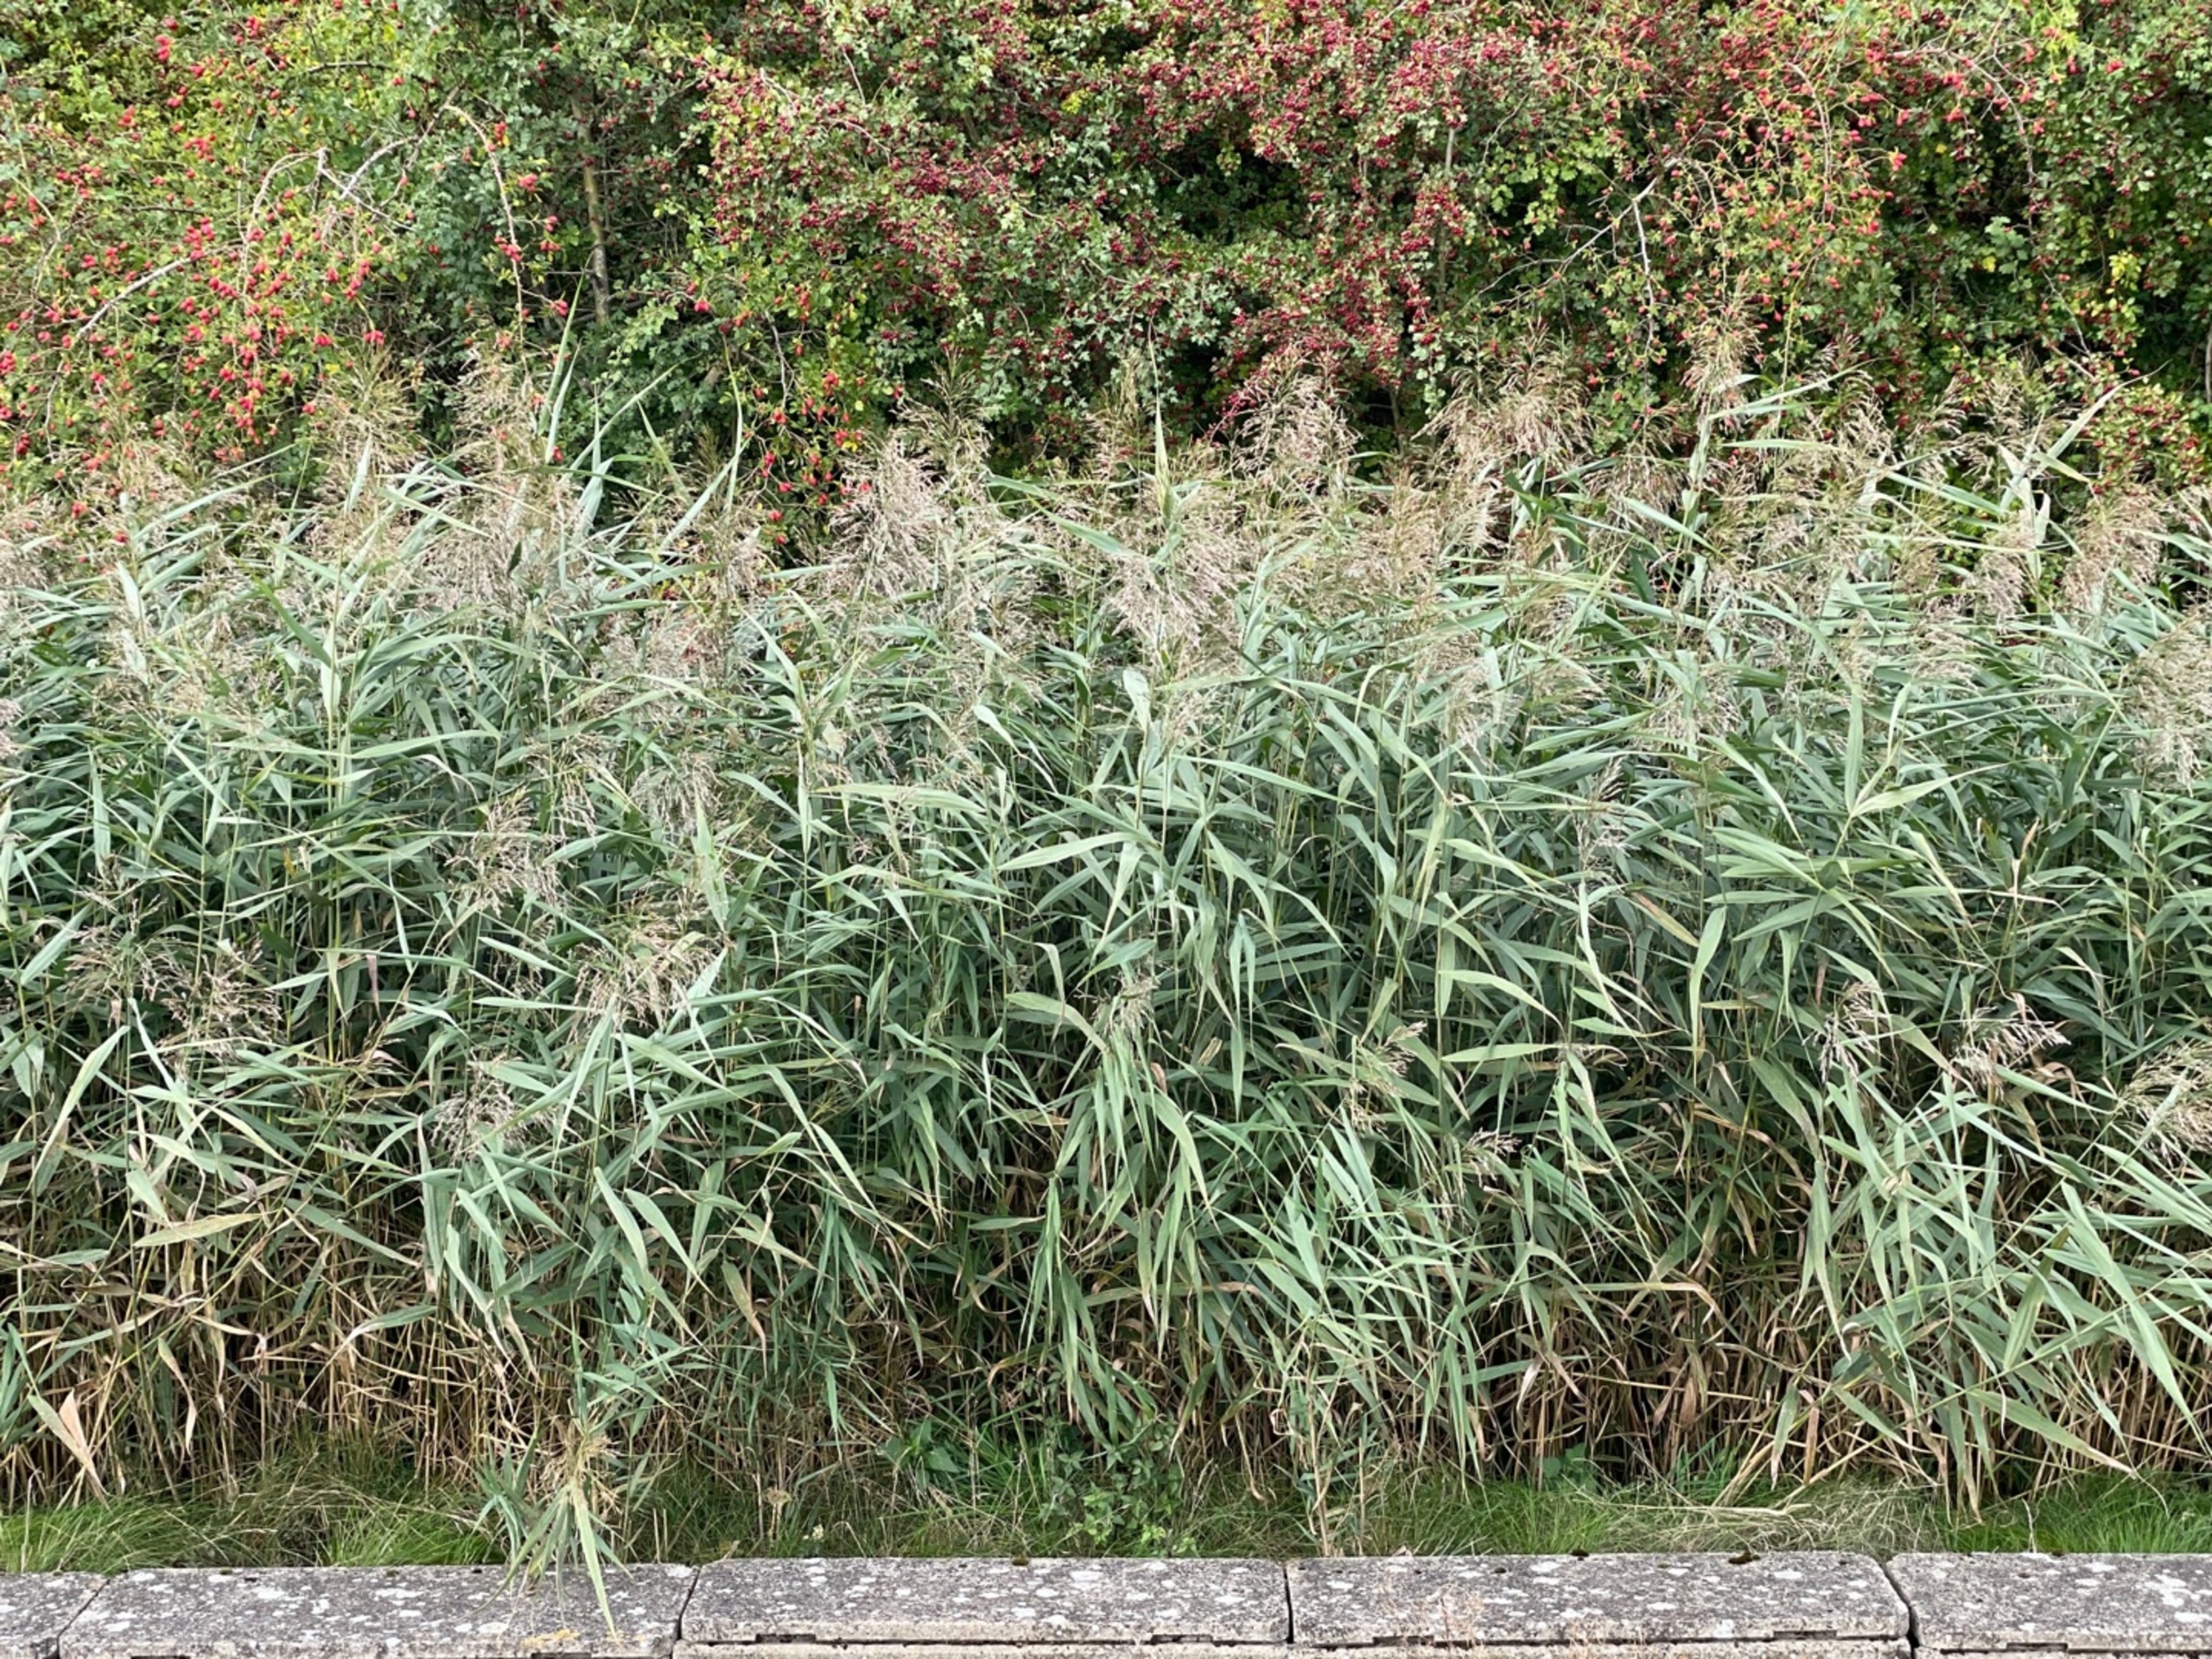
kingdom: Plantae
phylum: Tracheophyta
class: Liliopsida
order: Poales
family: Poaceae
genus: Phragmites
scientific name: Phragmites australis
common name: Tagrør
